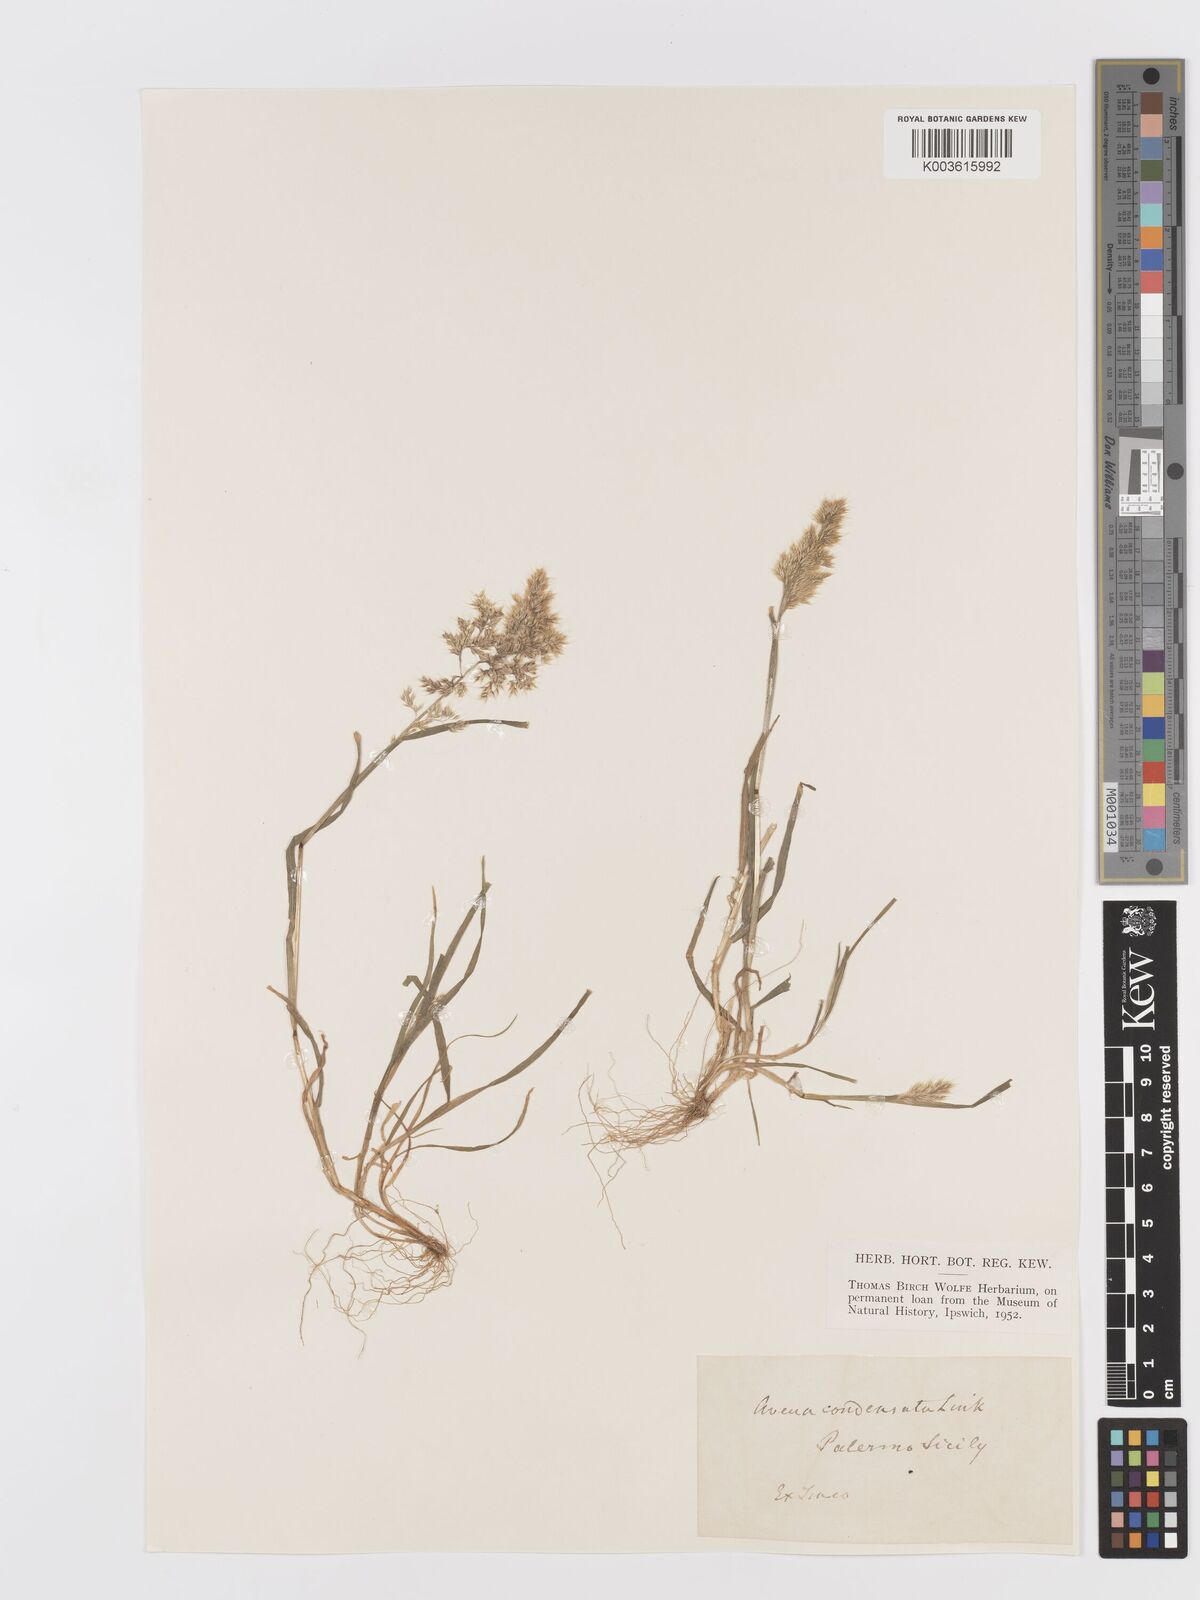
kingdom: Plantae
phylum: Tracheophyta
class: Liliopsida
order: Poales
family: Poaceae
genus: Trisetaria
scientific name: Trisetaria aurea
